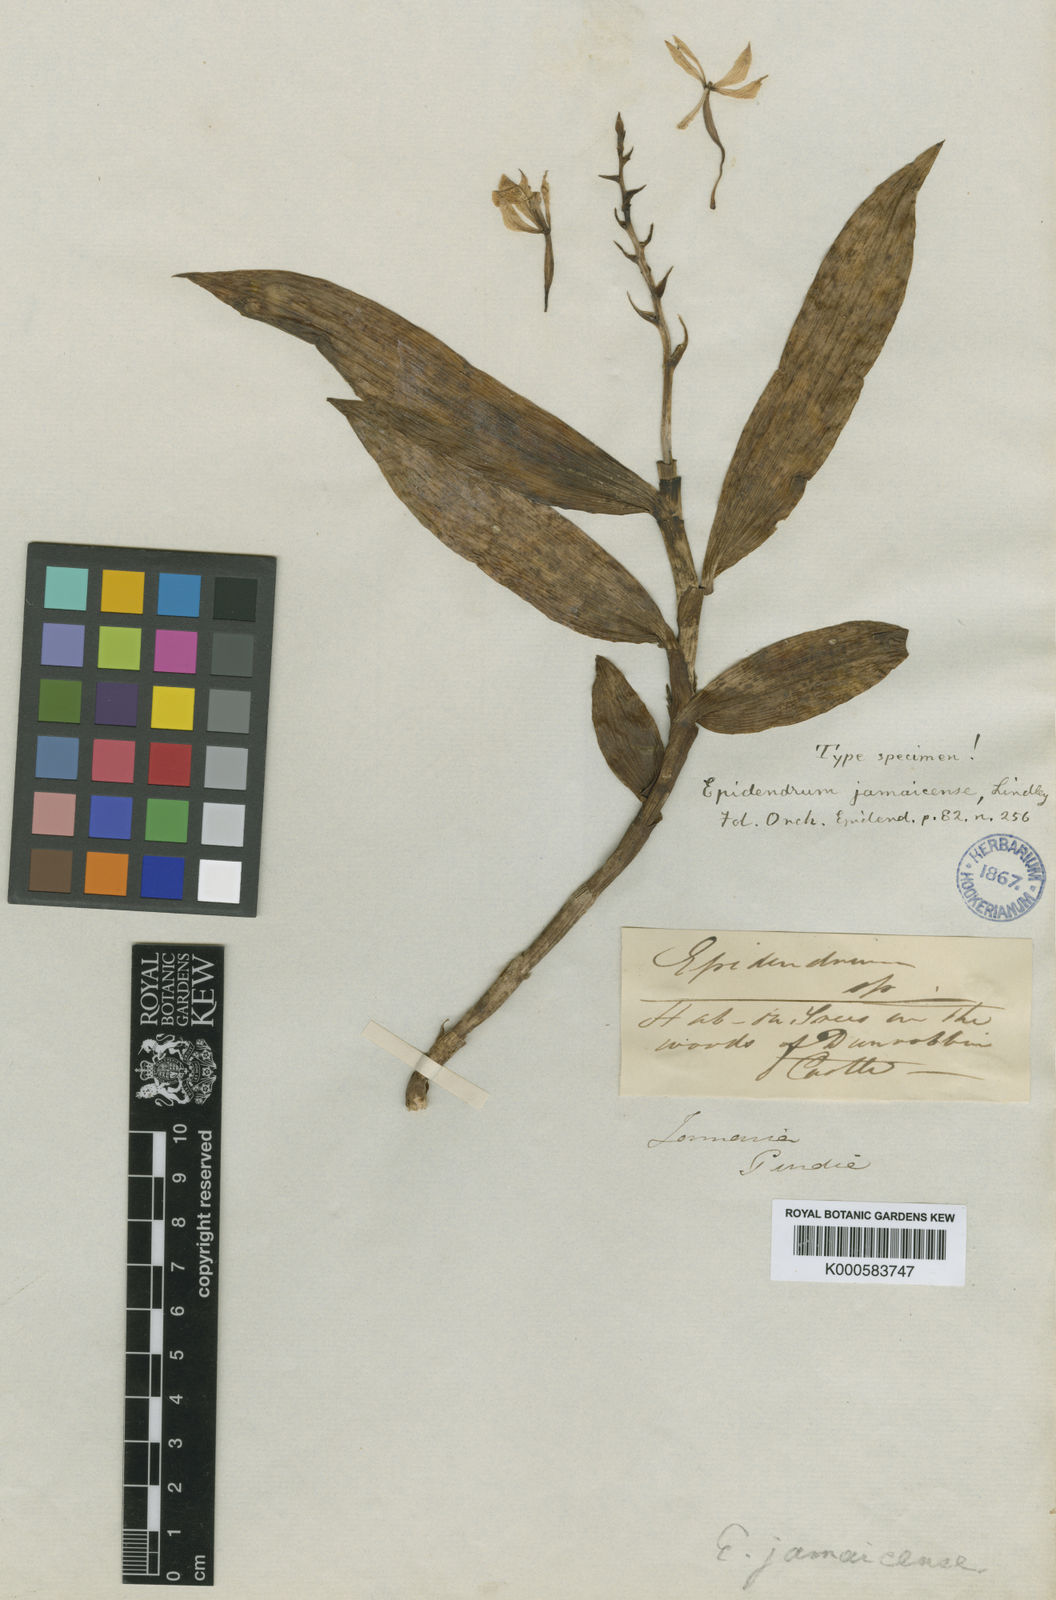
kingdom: Plantae
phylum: Tracheophyta
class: Liliopsida
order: Asparagales
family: Orchidaceae
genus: Epidendrum
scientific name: Epidendrum jamaicense
